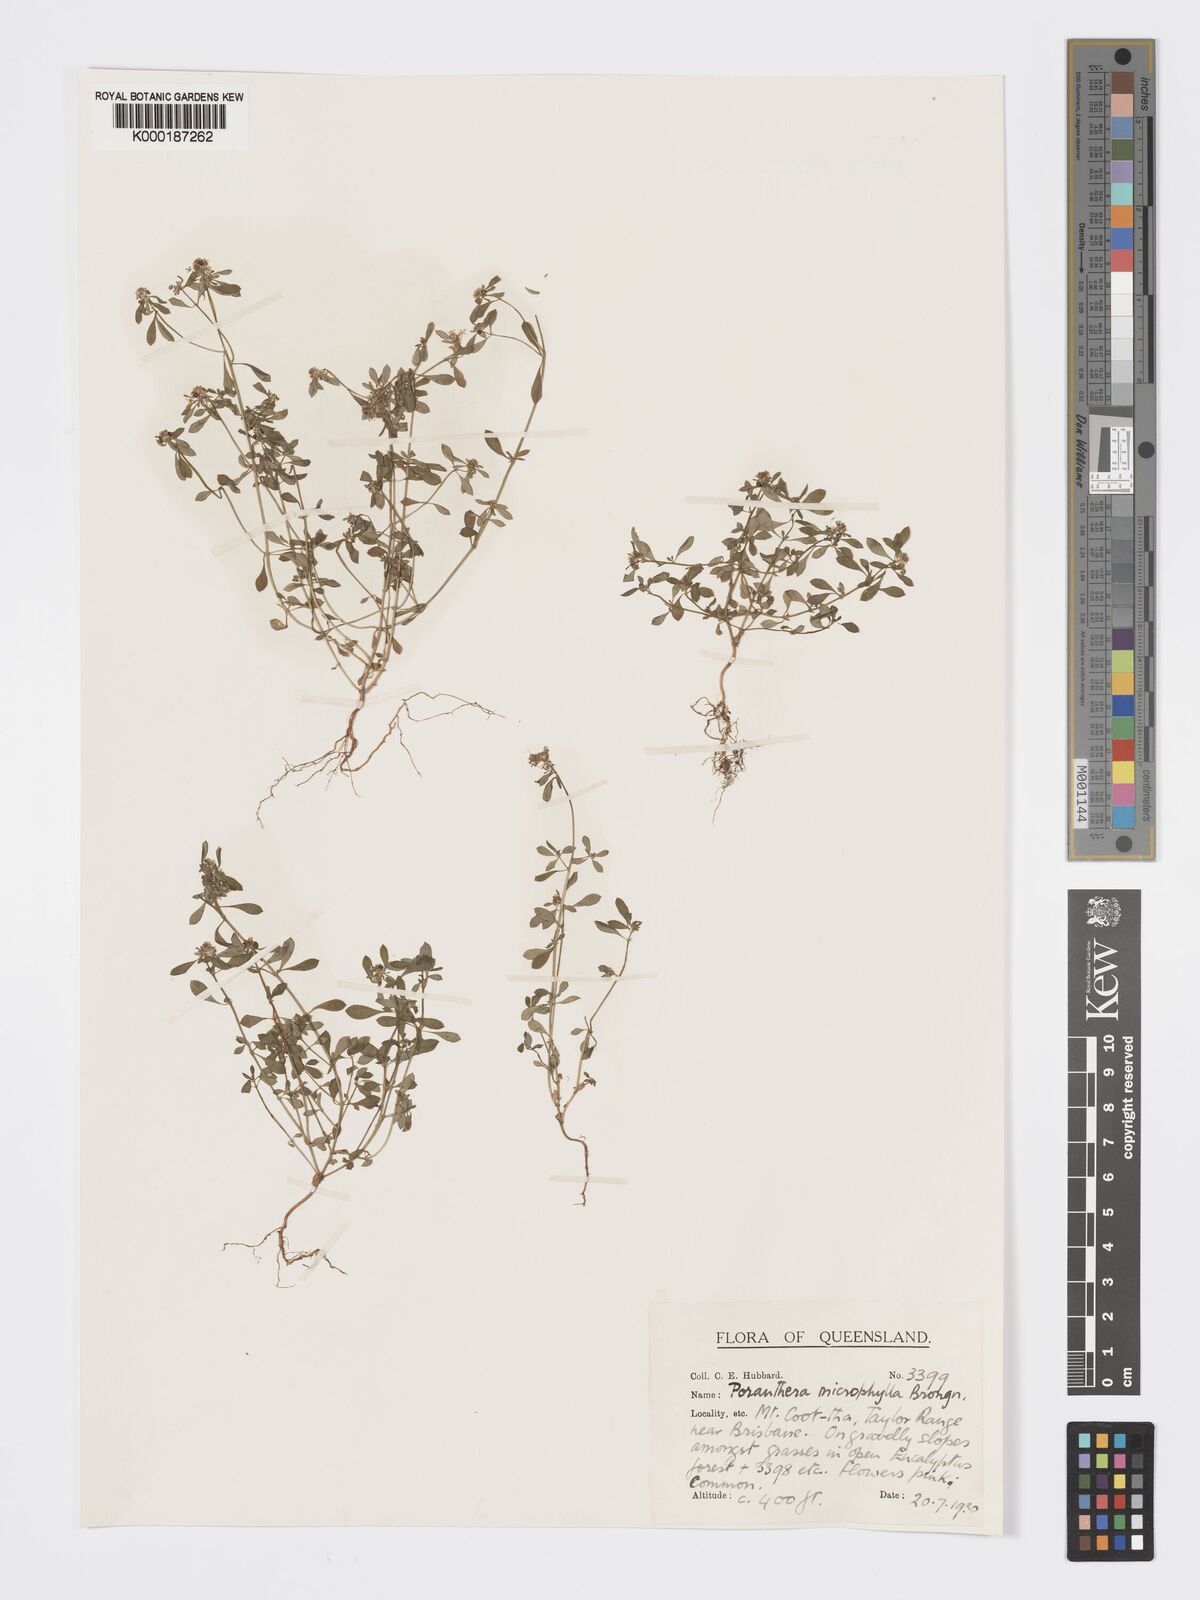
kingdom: Plantae
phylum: Tracheophyta
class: Magnoliopsida
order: Malpighiales
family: Phyllanthaceae
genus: Poranthera
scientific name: Poranthera microphylla
